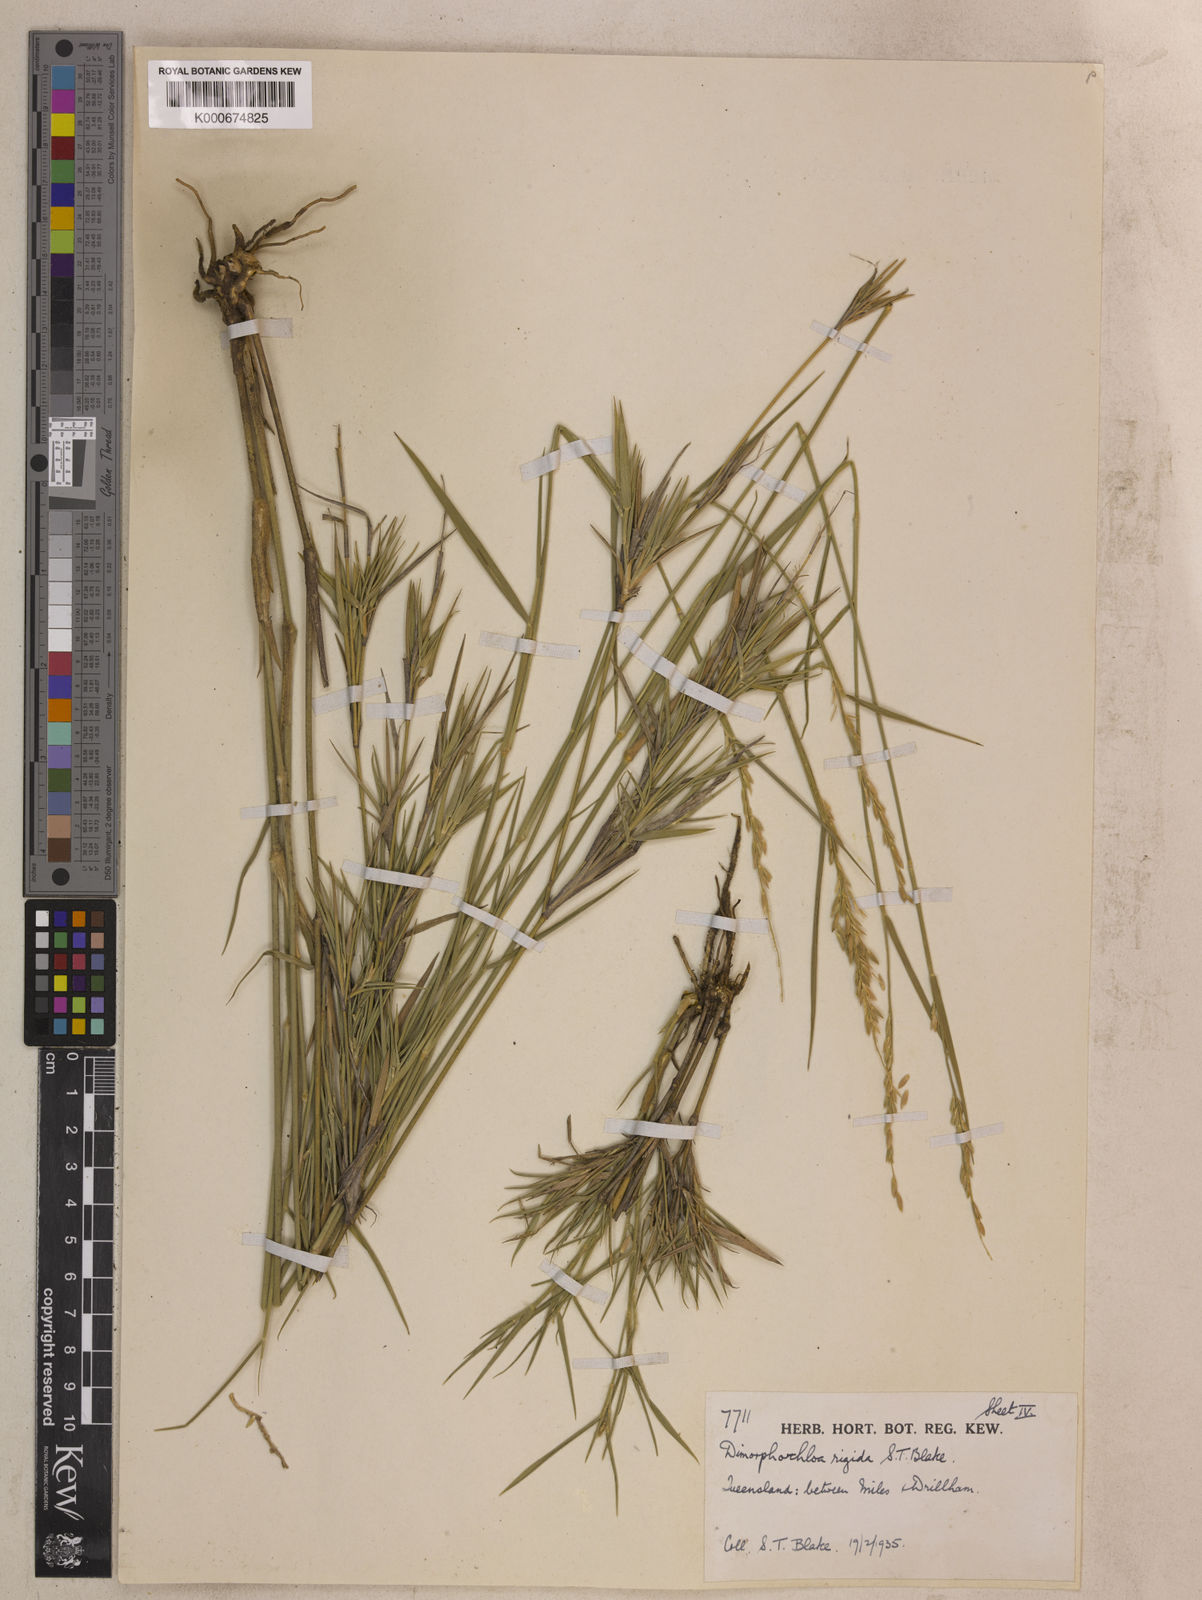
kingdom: Plantae
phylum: Tracheophyta
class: Liliopsida
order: Poales
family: Poaceae
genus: Dimorphochloa
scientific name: Dimorphochloa rigida
